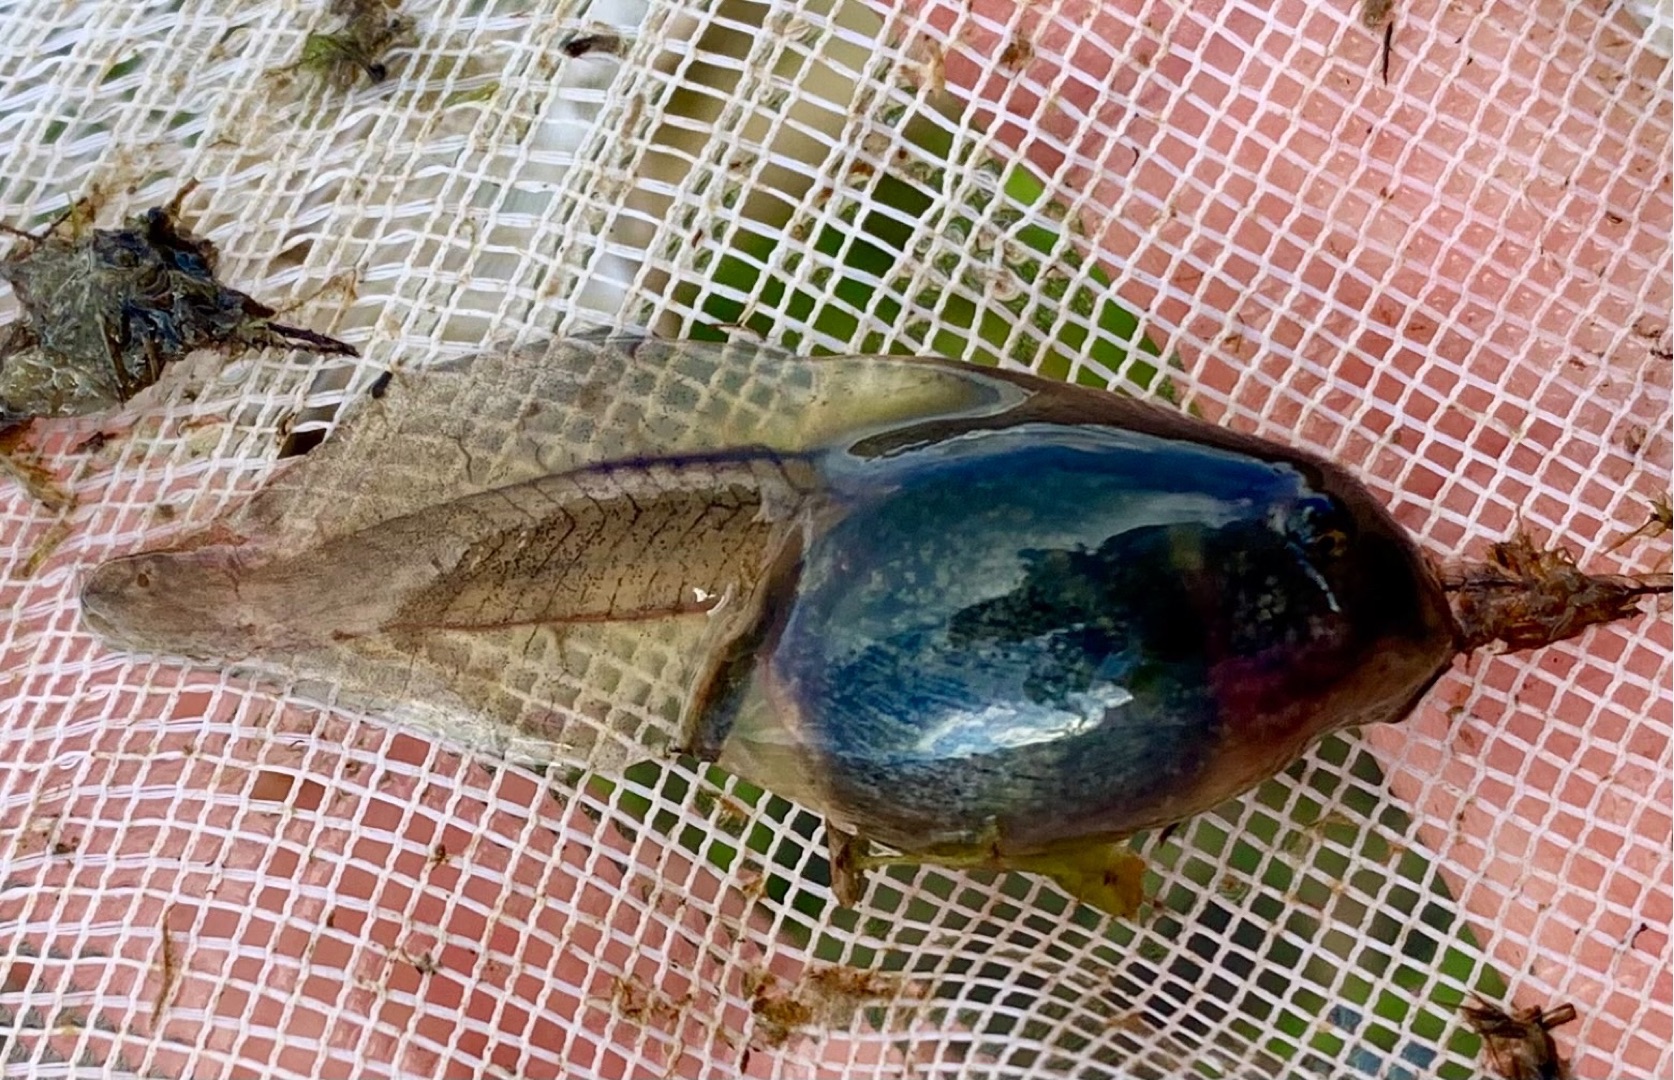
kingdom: Animalia
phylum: Chordata
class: Amphibia
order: Anura
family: Pelobatidae
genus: Pelobates
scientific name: Pelobates fuscus
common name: Løgfrø
